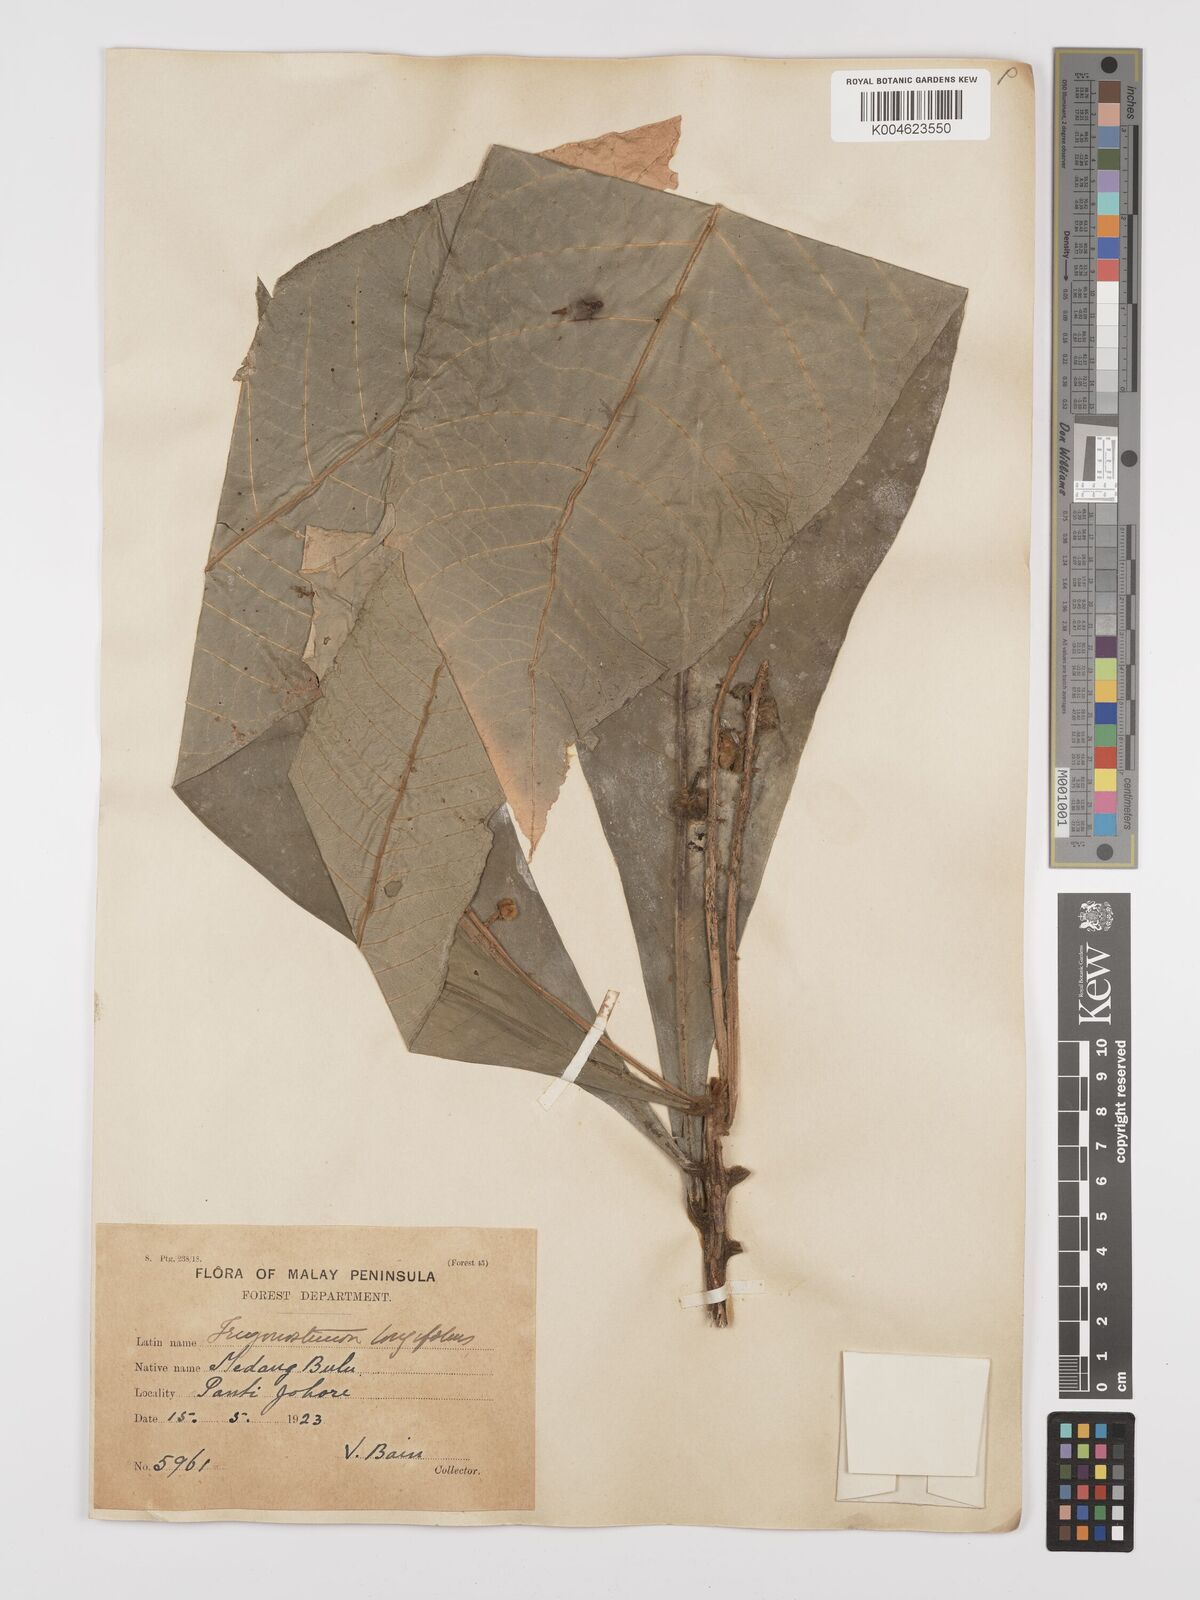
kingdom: Plantae
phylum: Tracheophyta
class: Magnoliopsida
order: Malpighiales
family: Euphorbiaceae
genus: Trigonostemon
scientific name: Trigonostemon longifolius
